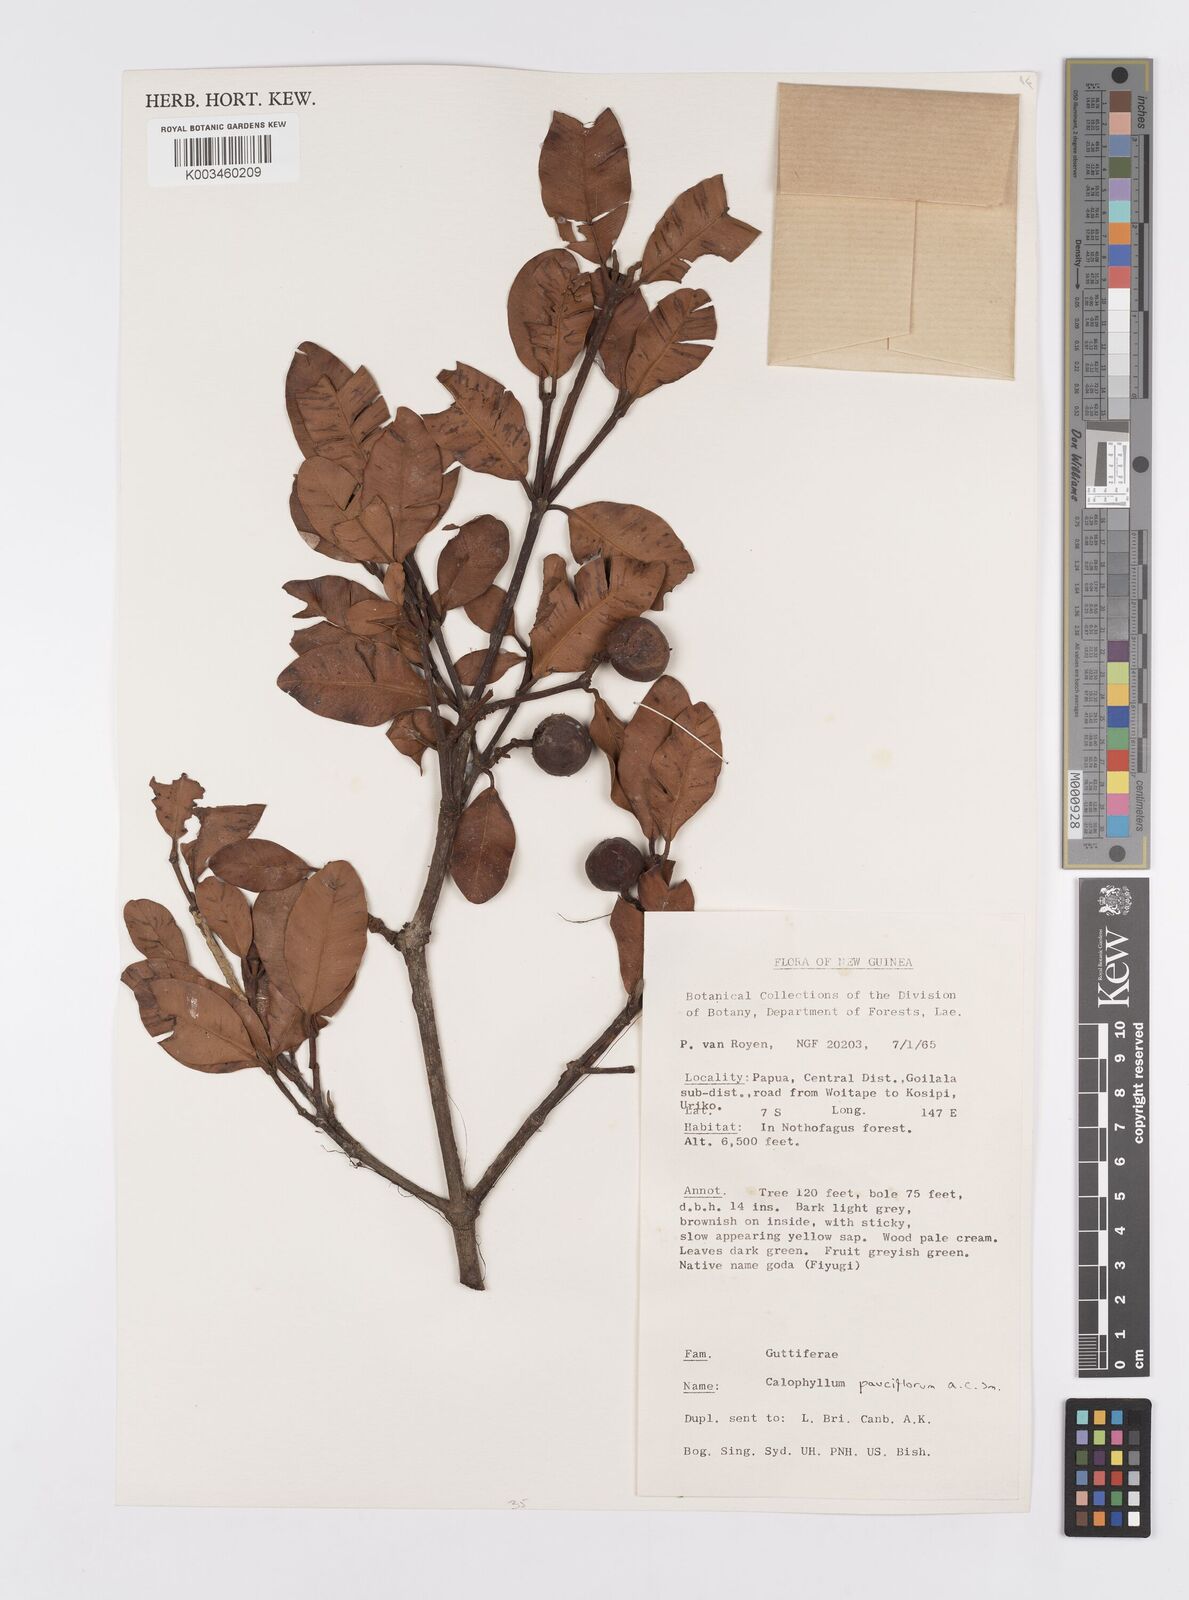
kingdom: Plantae
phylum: Tracheophyta
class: Magnoliopsida
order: Malpighiales
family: Calophyllaceae
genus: Calophyllum
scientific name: Calophyllum parviflorum
